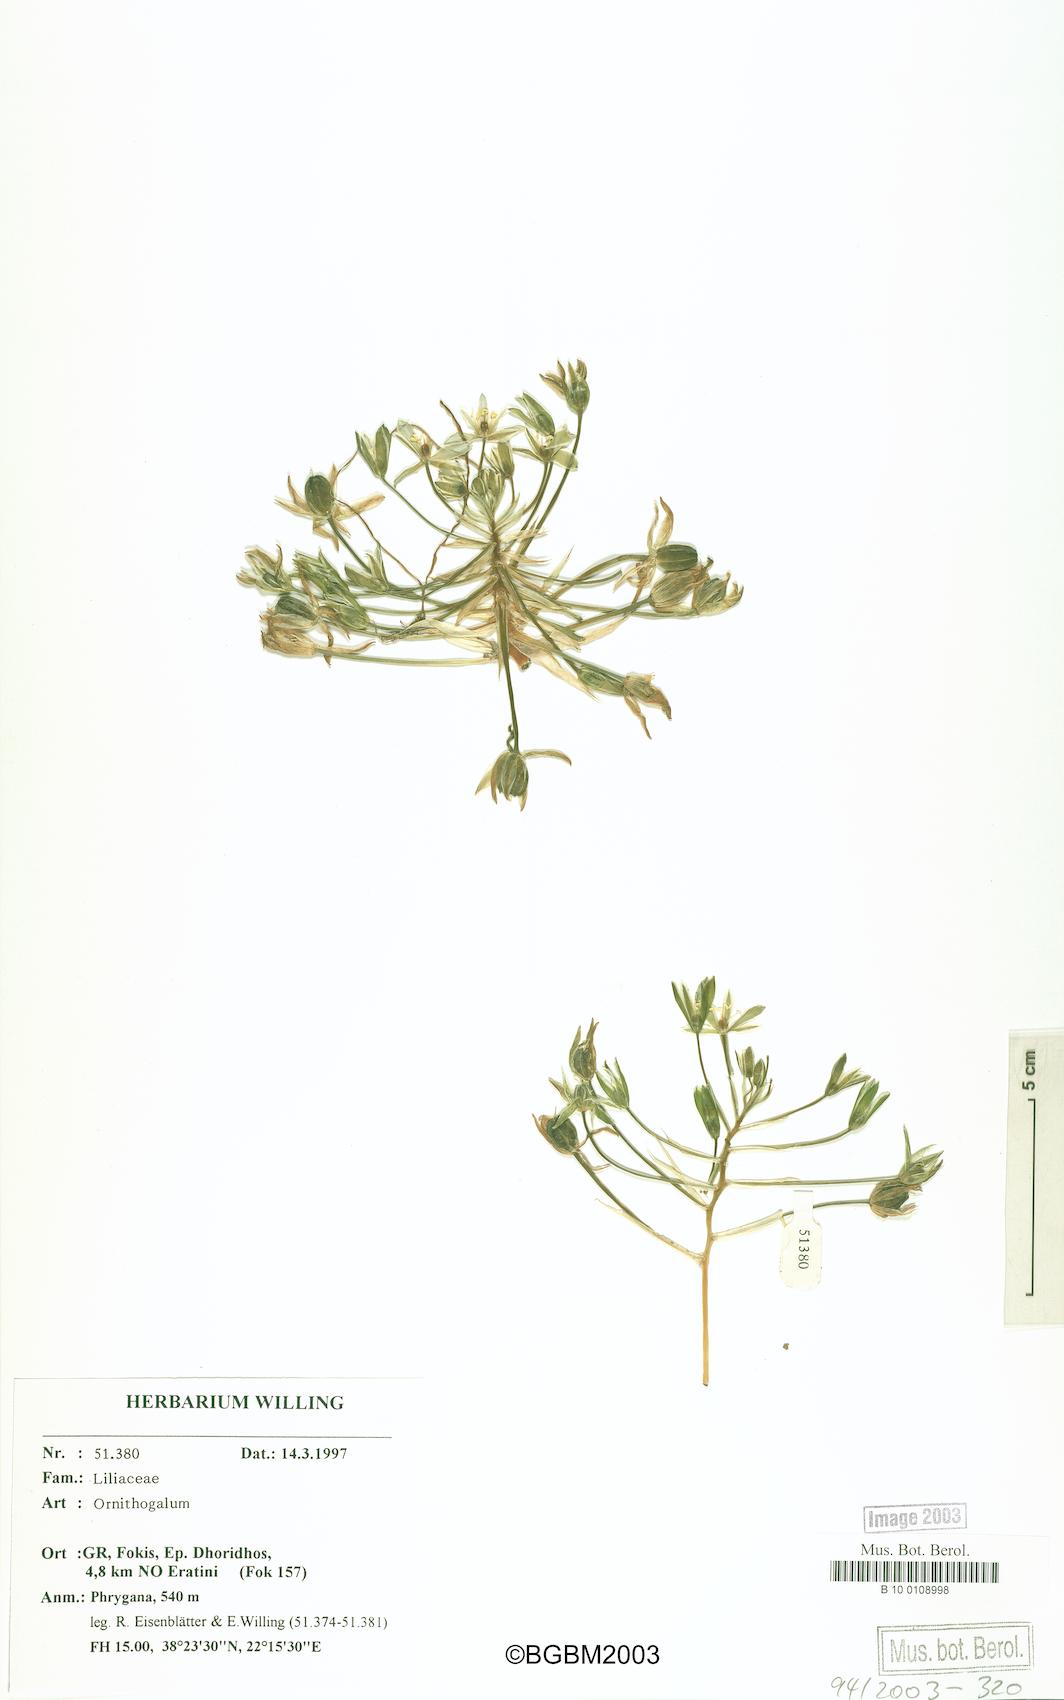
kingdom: Plantae
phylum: Tracheophyta
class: Liliopsida
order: Asparagales
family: Asparagaceae
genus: Ornithogalum
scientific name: Ornithogalum
